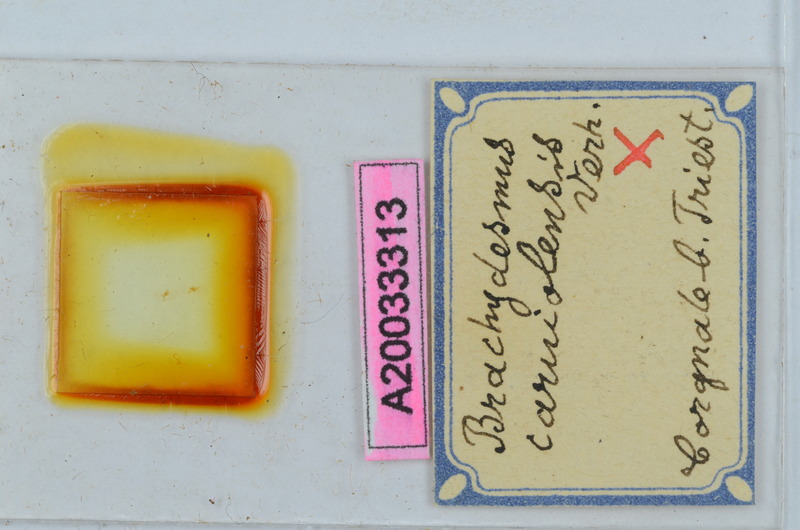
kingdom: Animalia
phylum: Arthropoda
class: Diplopoda
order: Polydesmida
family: Polydesmidae
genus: Brachydesmus
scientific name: Brachydesmus carniolensis
